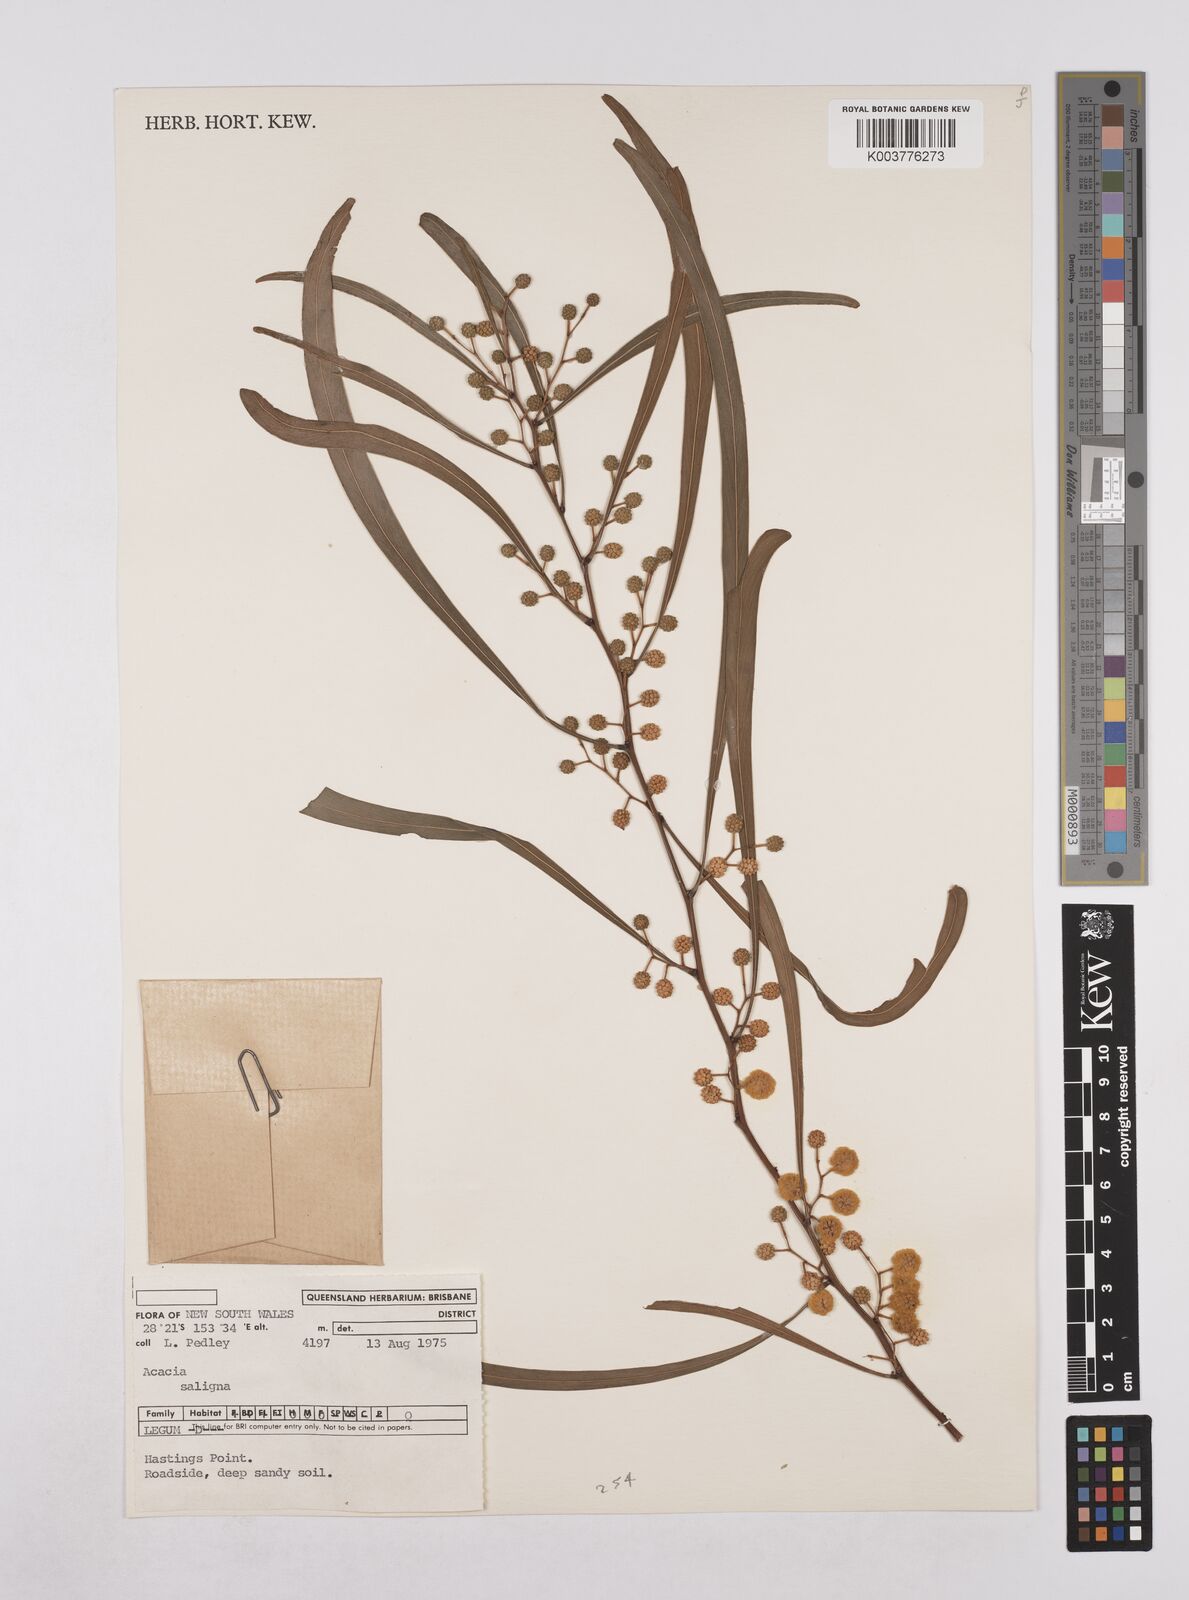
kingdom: Plantae
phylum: Tracheophyta
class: Magnoliopsida
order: Fabales
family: Fabaceae
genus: Acacia
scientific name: Acacia saligna
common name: Orange wattle
